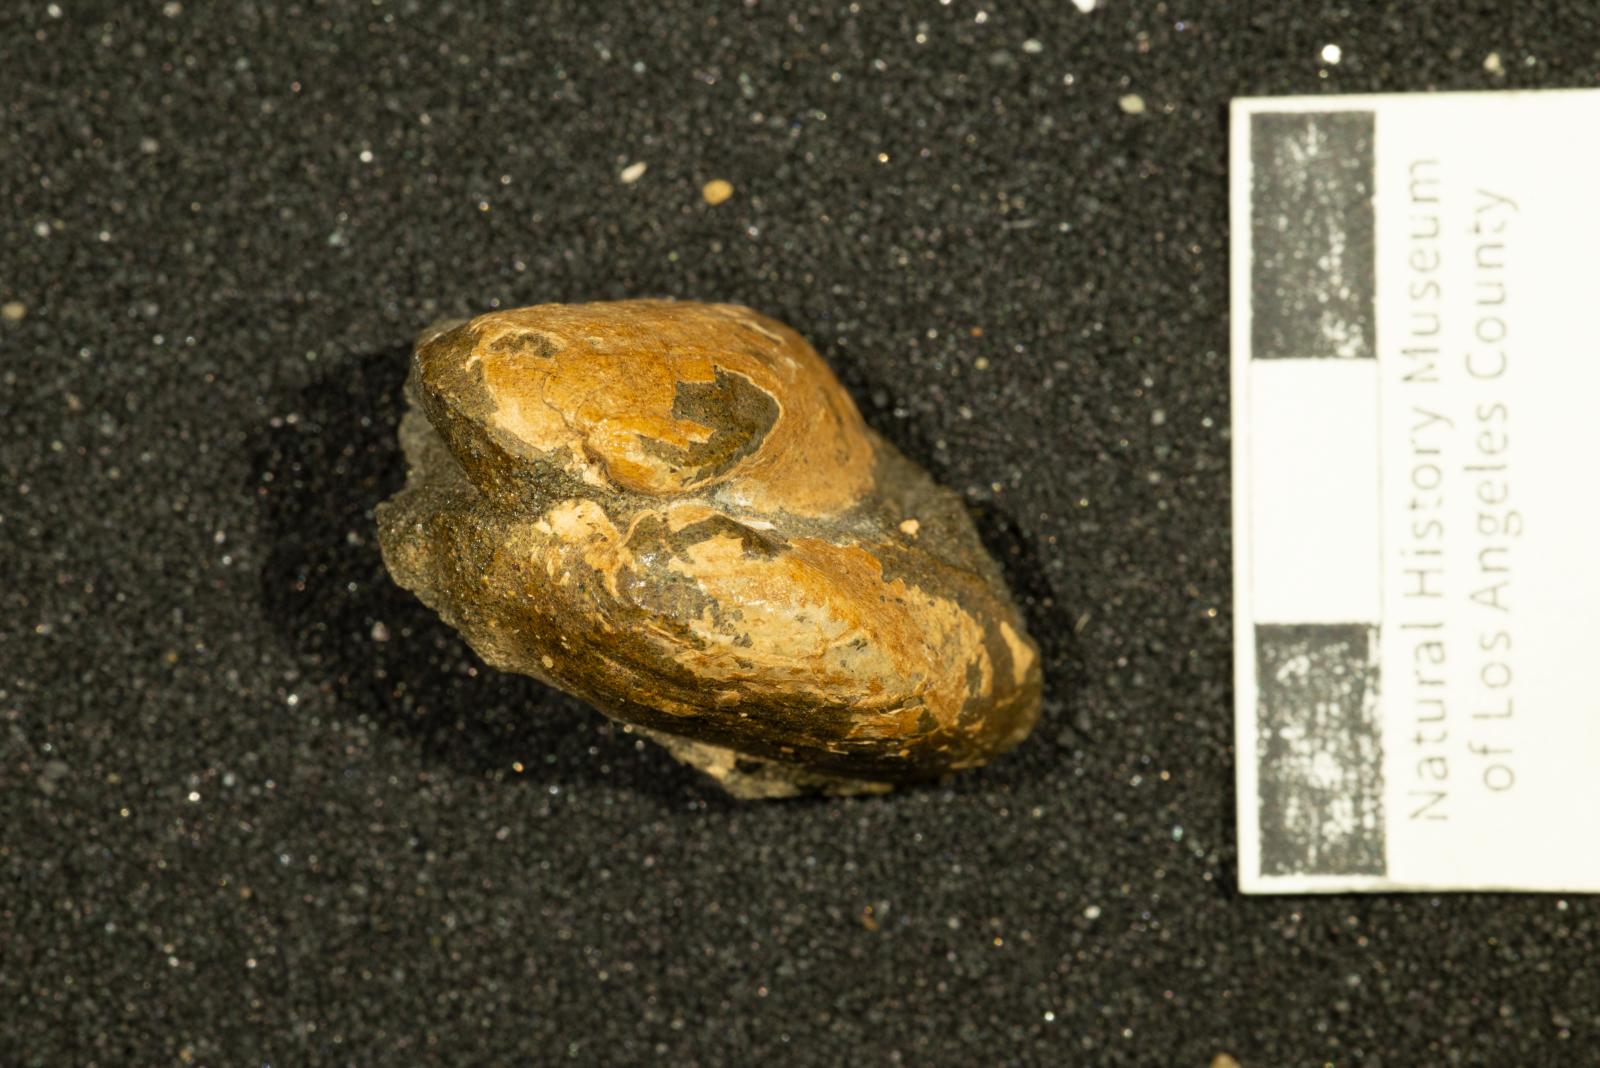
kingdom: Animalia
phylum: Mollusca
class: Bivalvia
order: Arcida
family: Parallelodontidae
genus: Nemodon
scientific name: Nemodon
